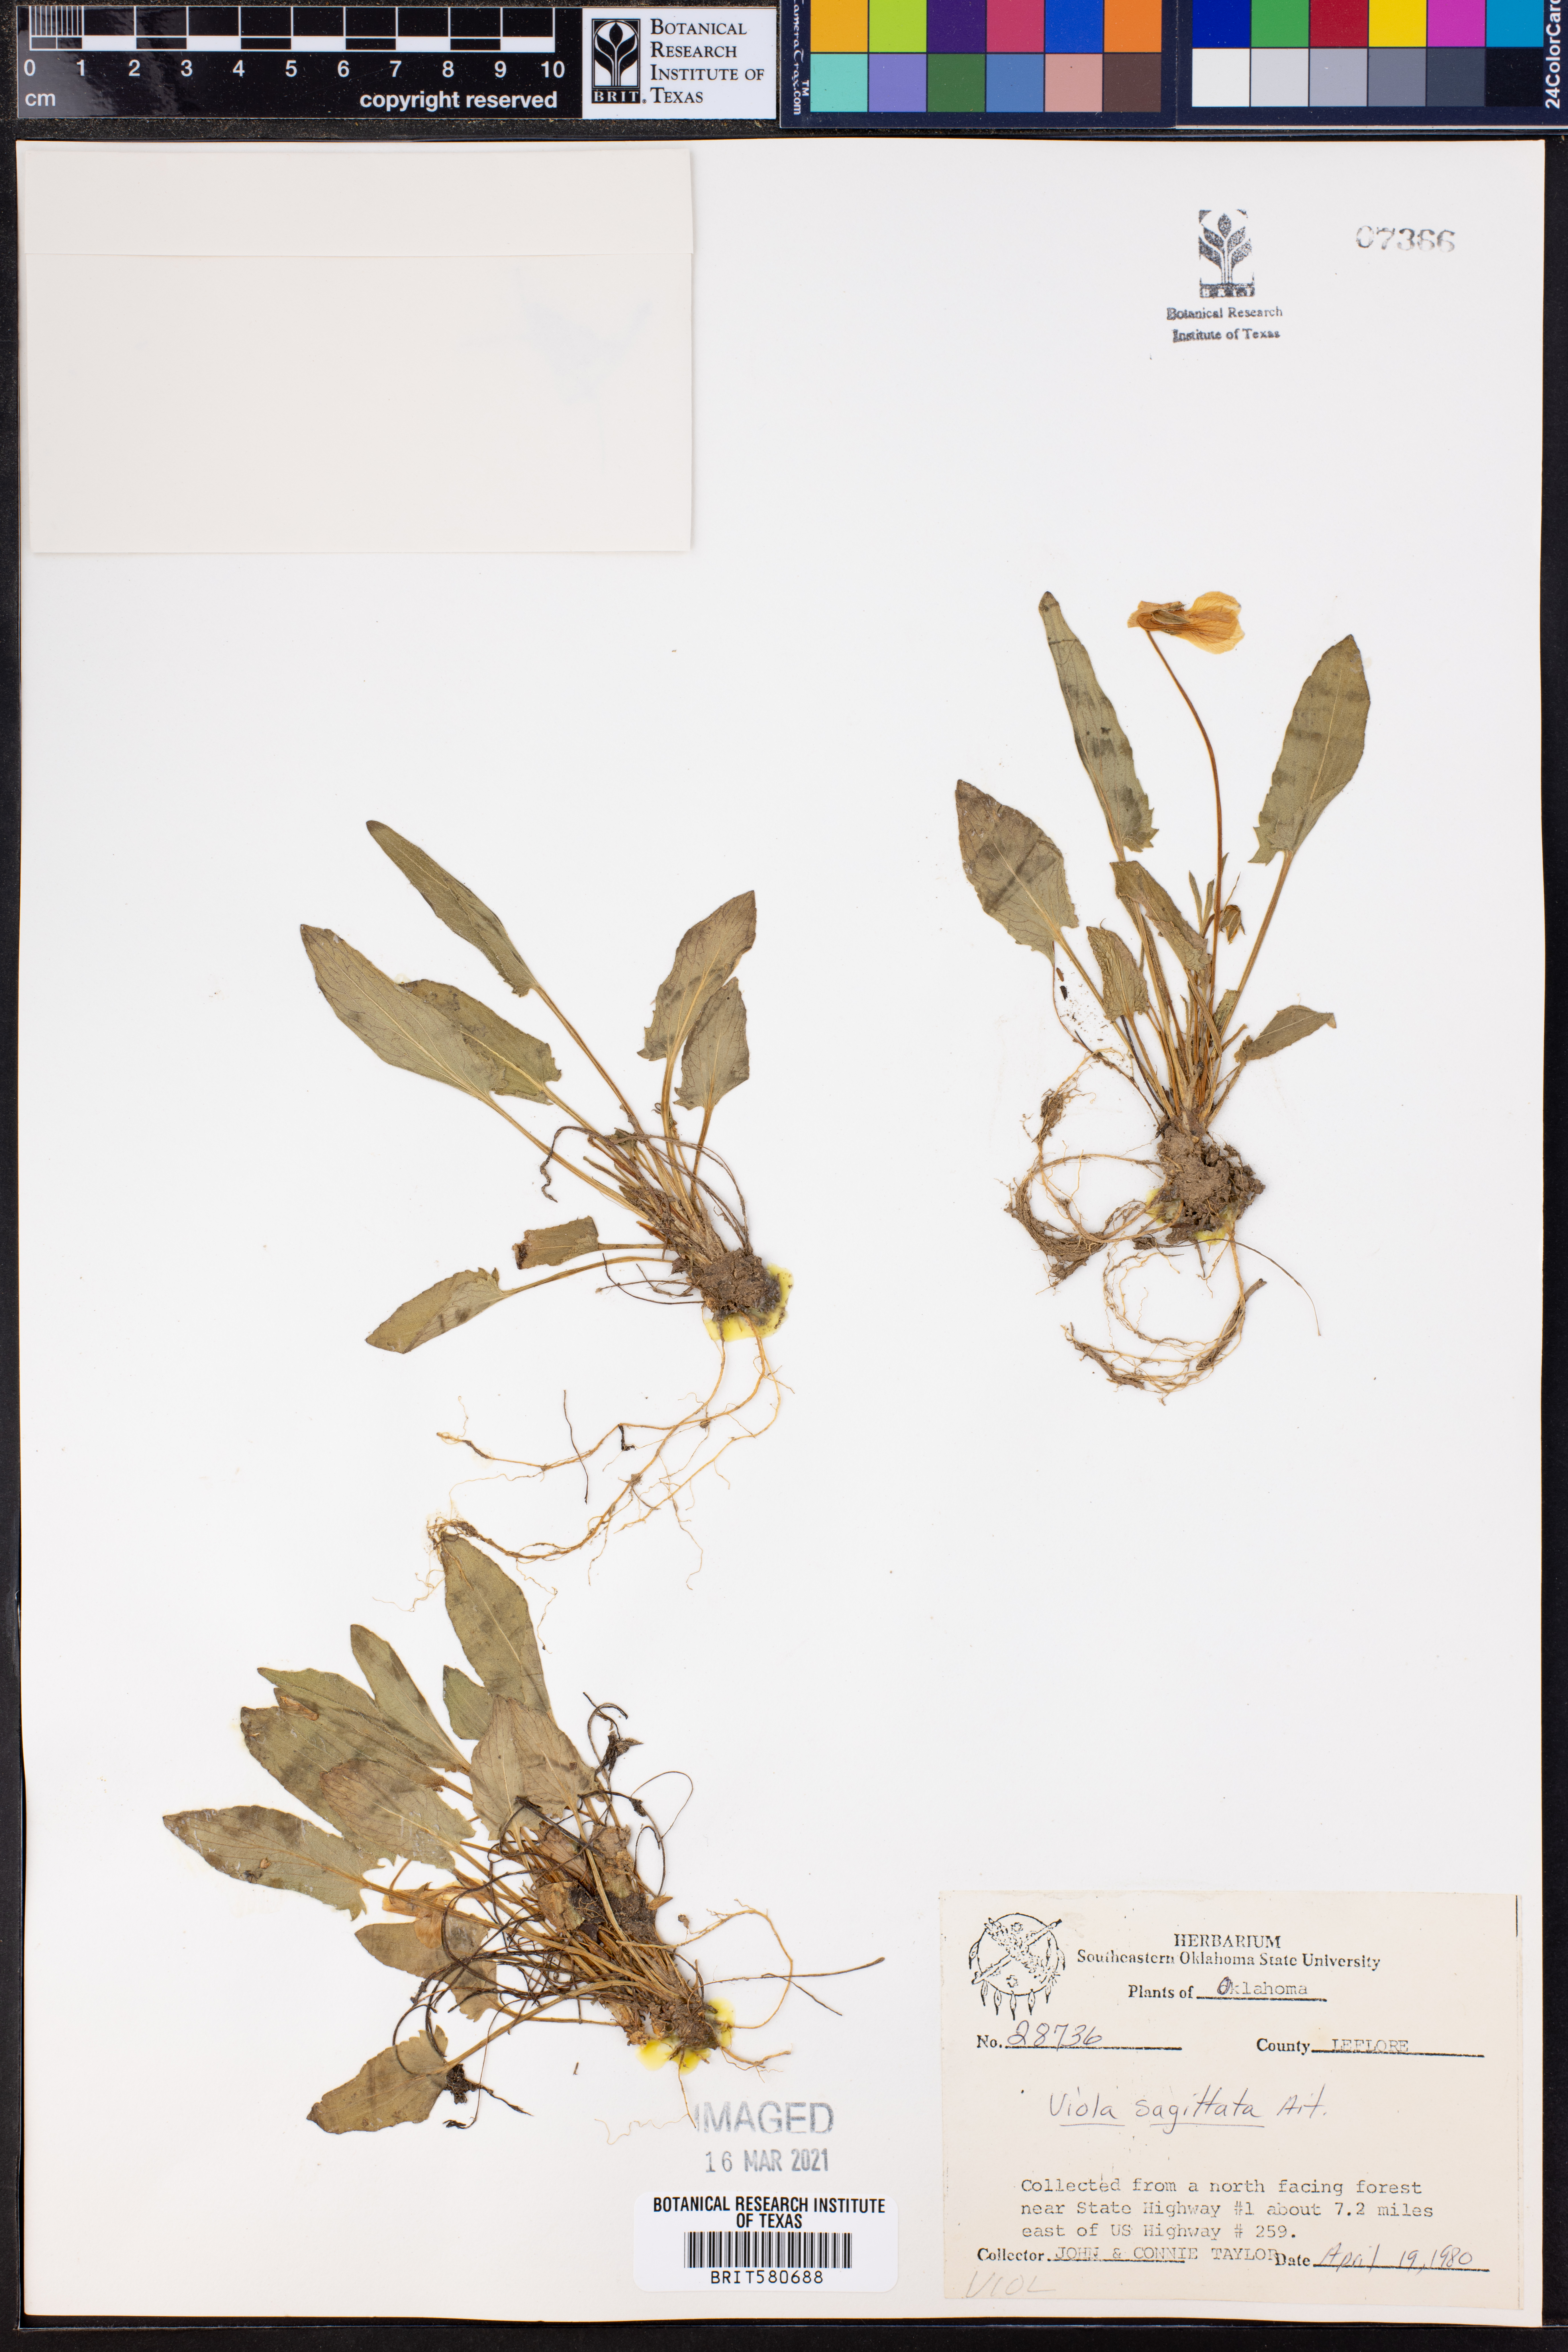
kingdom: Plantae
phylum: Tracheophyta
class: Magnoliopsida
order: Malpighiales
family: Violaceae
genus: Viola
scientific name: Viola sagittata
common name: Arrowhead violet
